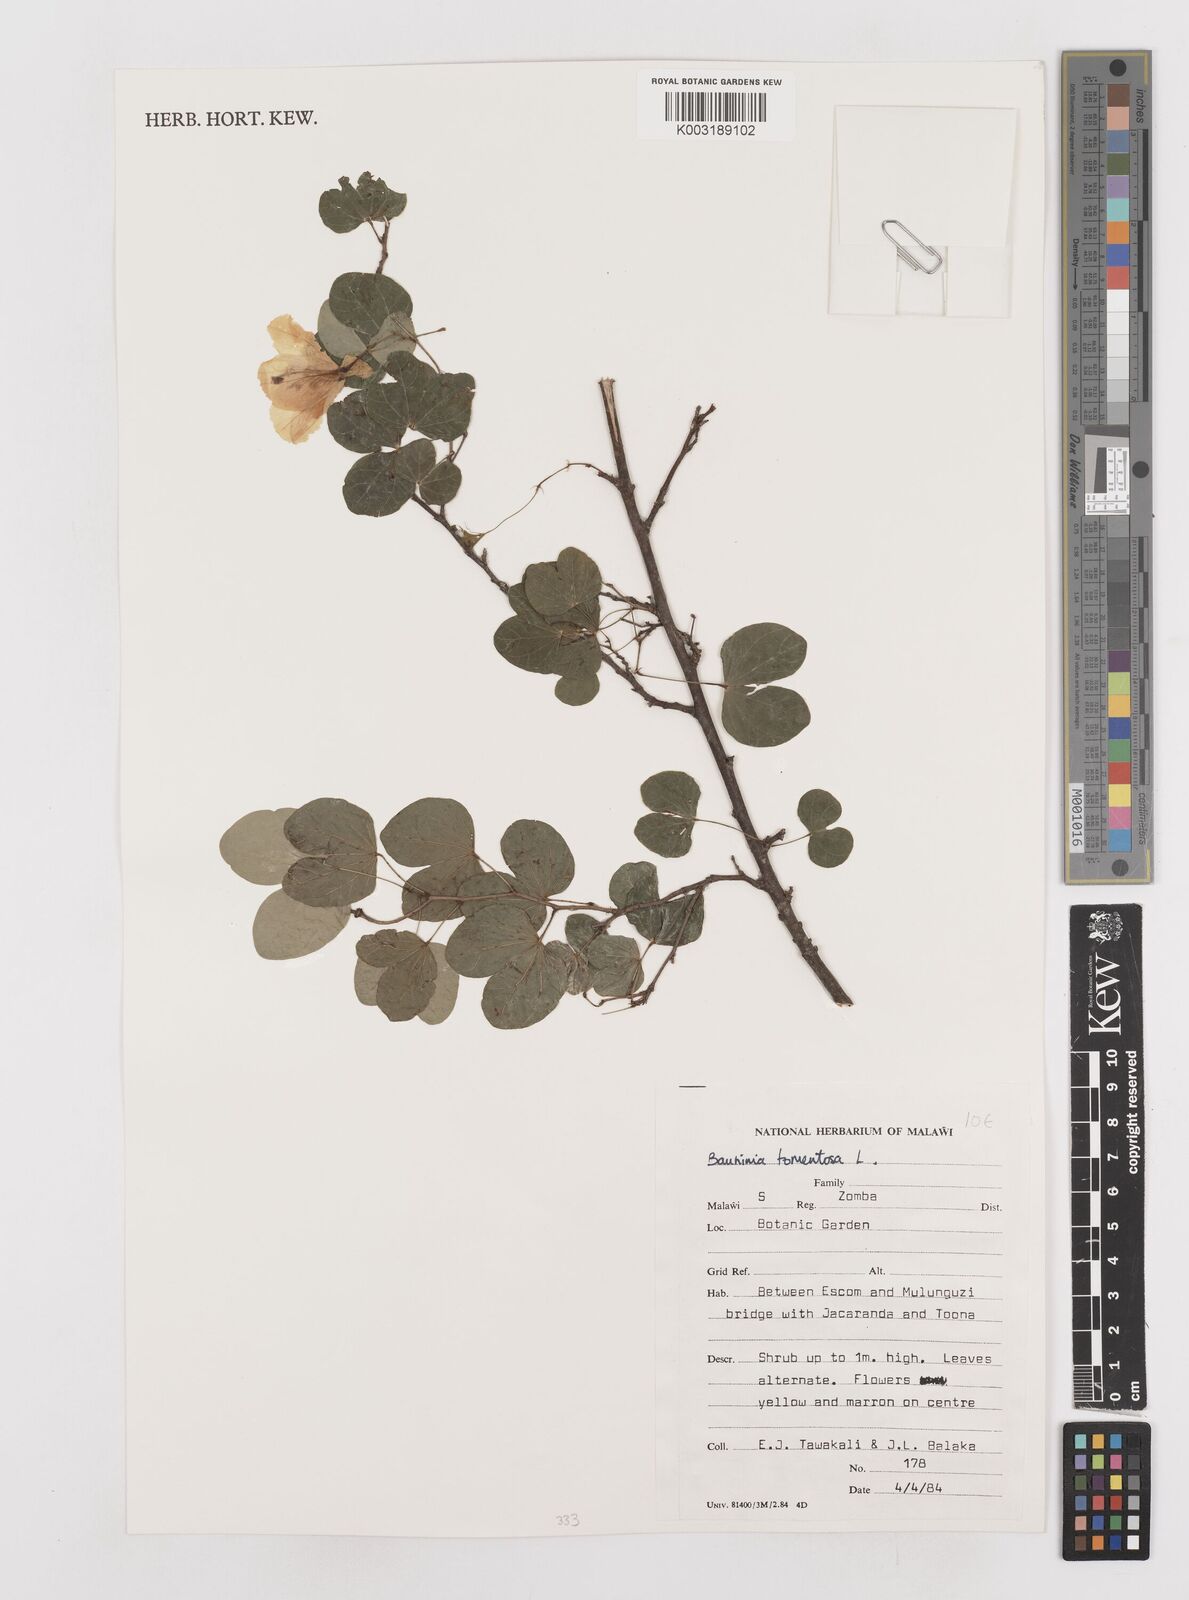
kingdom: Plantae
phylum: Tracheophyta
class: Magnoliopsida
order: Fabales
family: Fabaceae
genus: Bauhinia
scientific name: Bauhinia tomentosa
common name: Bell bauhinia
